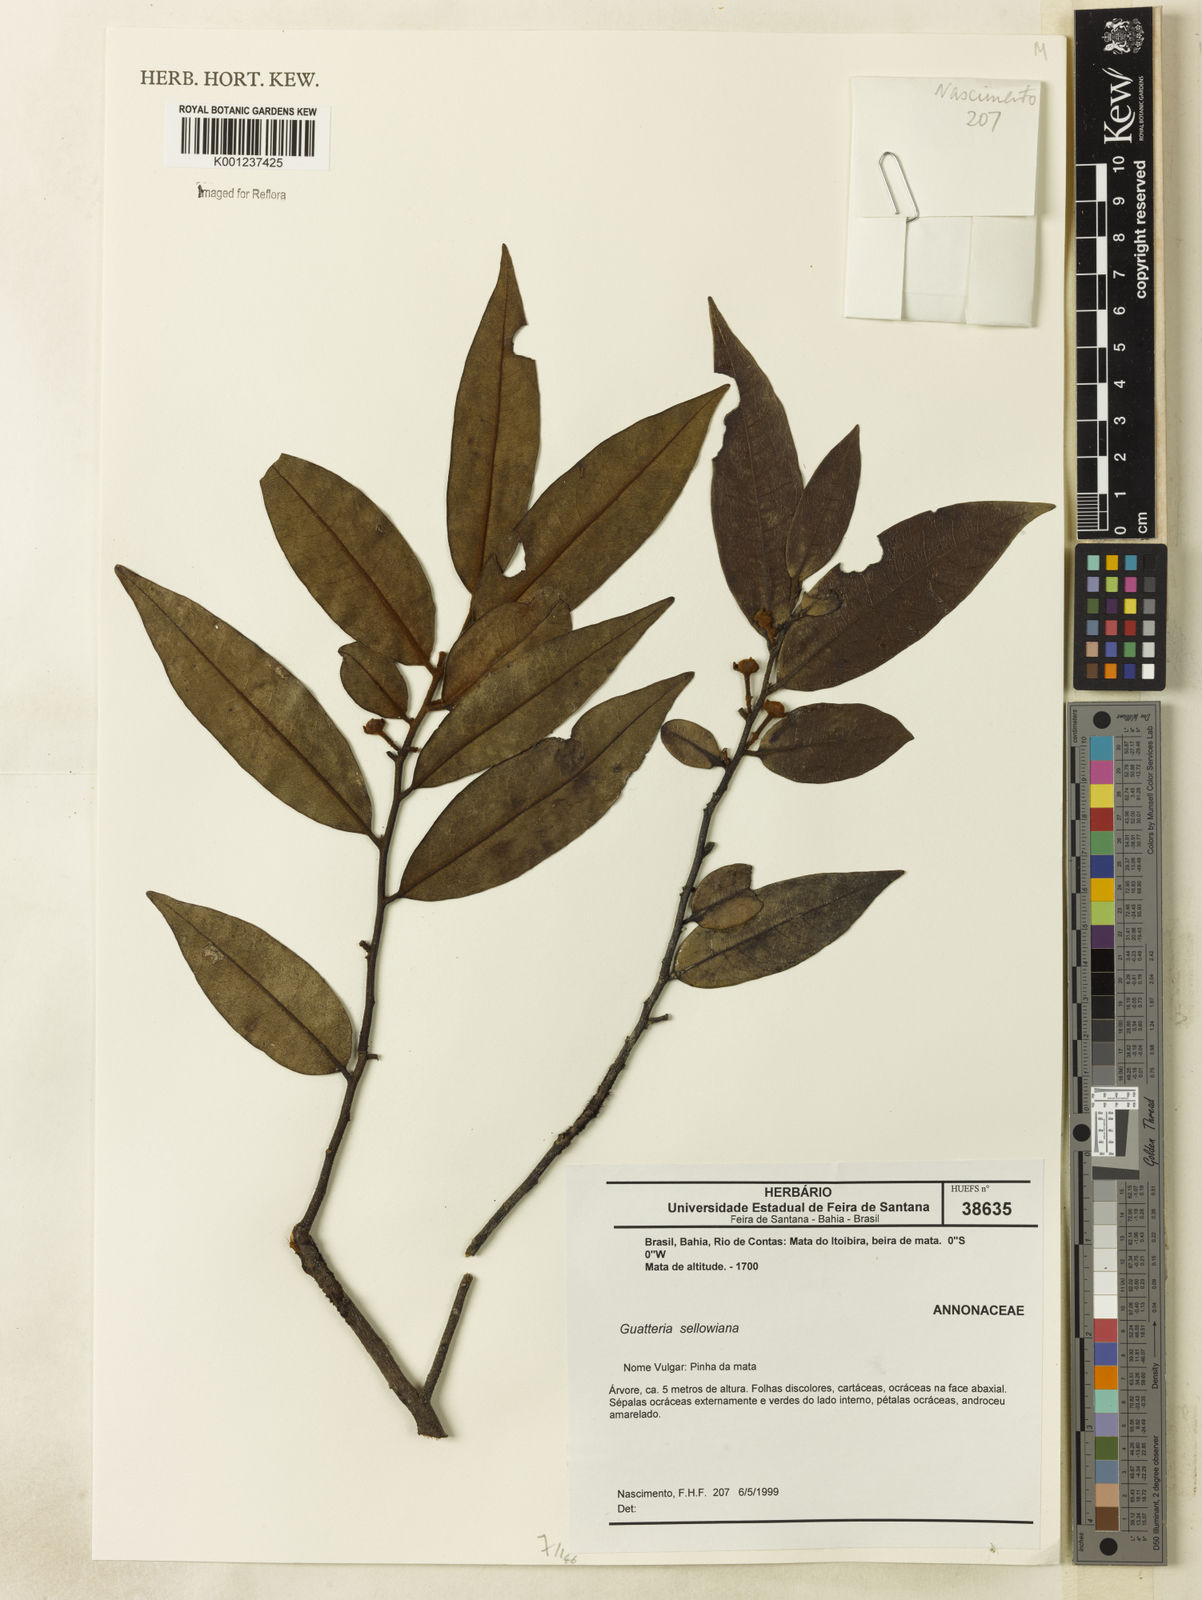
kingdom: Plantae
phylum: Tracheophyta
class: Magnoliopsida
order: Magnoliales
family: Annonaceae
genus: Guatteria
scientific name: Guatteria sellowiana
